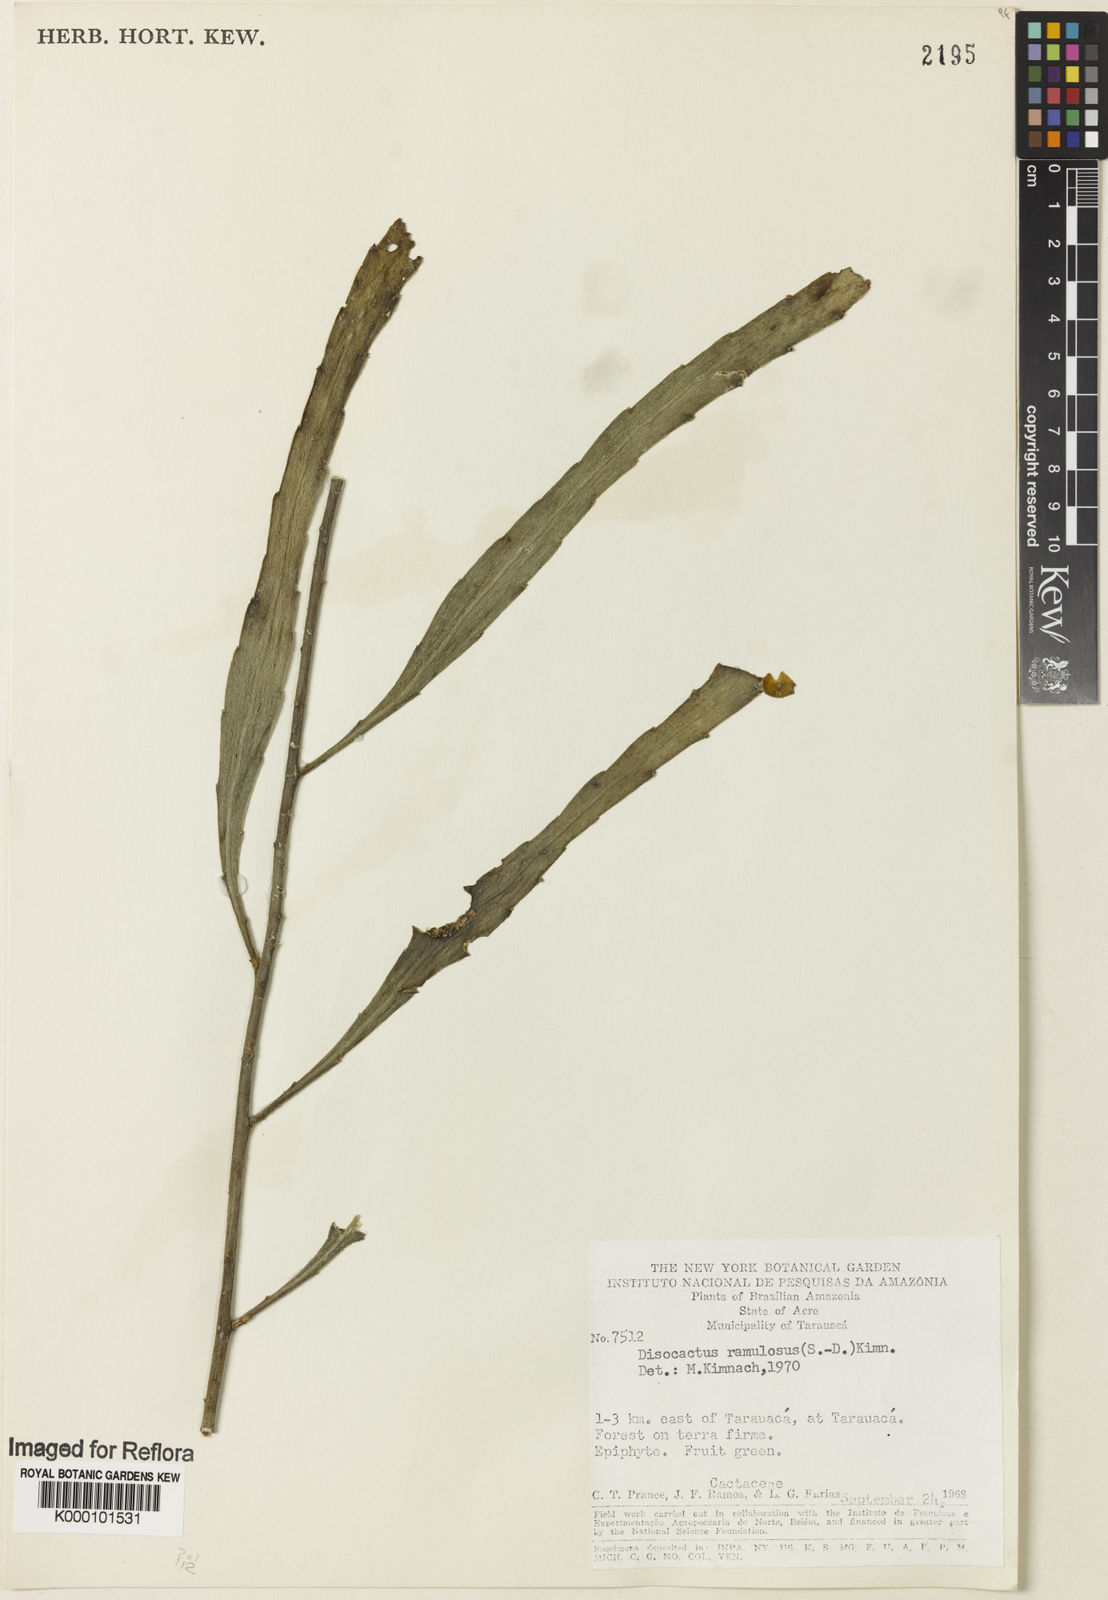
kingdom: Plantae
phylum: Tracheophyta
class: Magnoliopsida
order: Caryophyllales
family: Cactaceae
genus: Pseudorhipsalis
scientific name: Pseudorhipsalis
